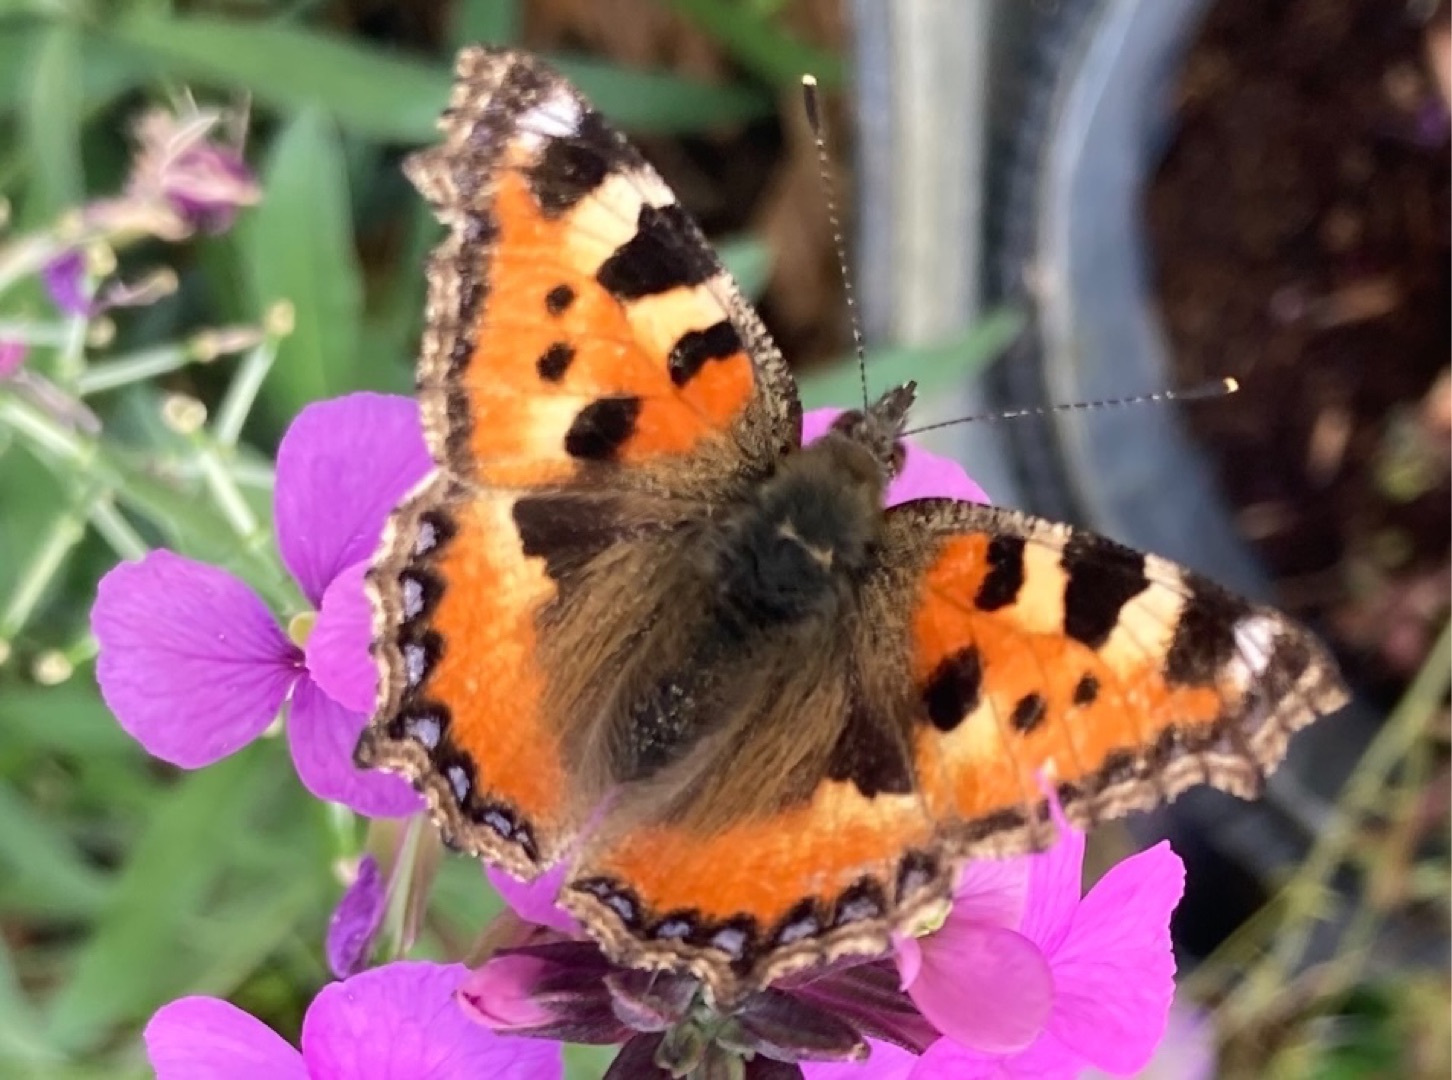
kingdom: Animalia
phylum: Arthropoda
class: Insecta
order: Lepidoptera
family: Nymphalidae
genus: Aglais
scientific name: Aglais urticae
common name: Nældens takvinge
